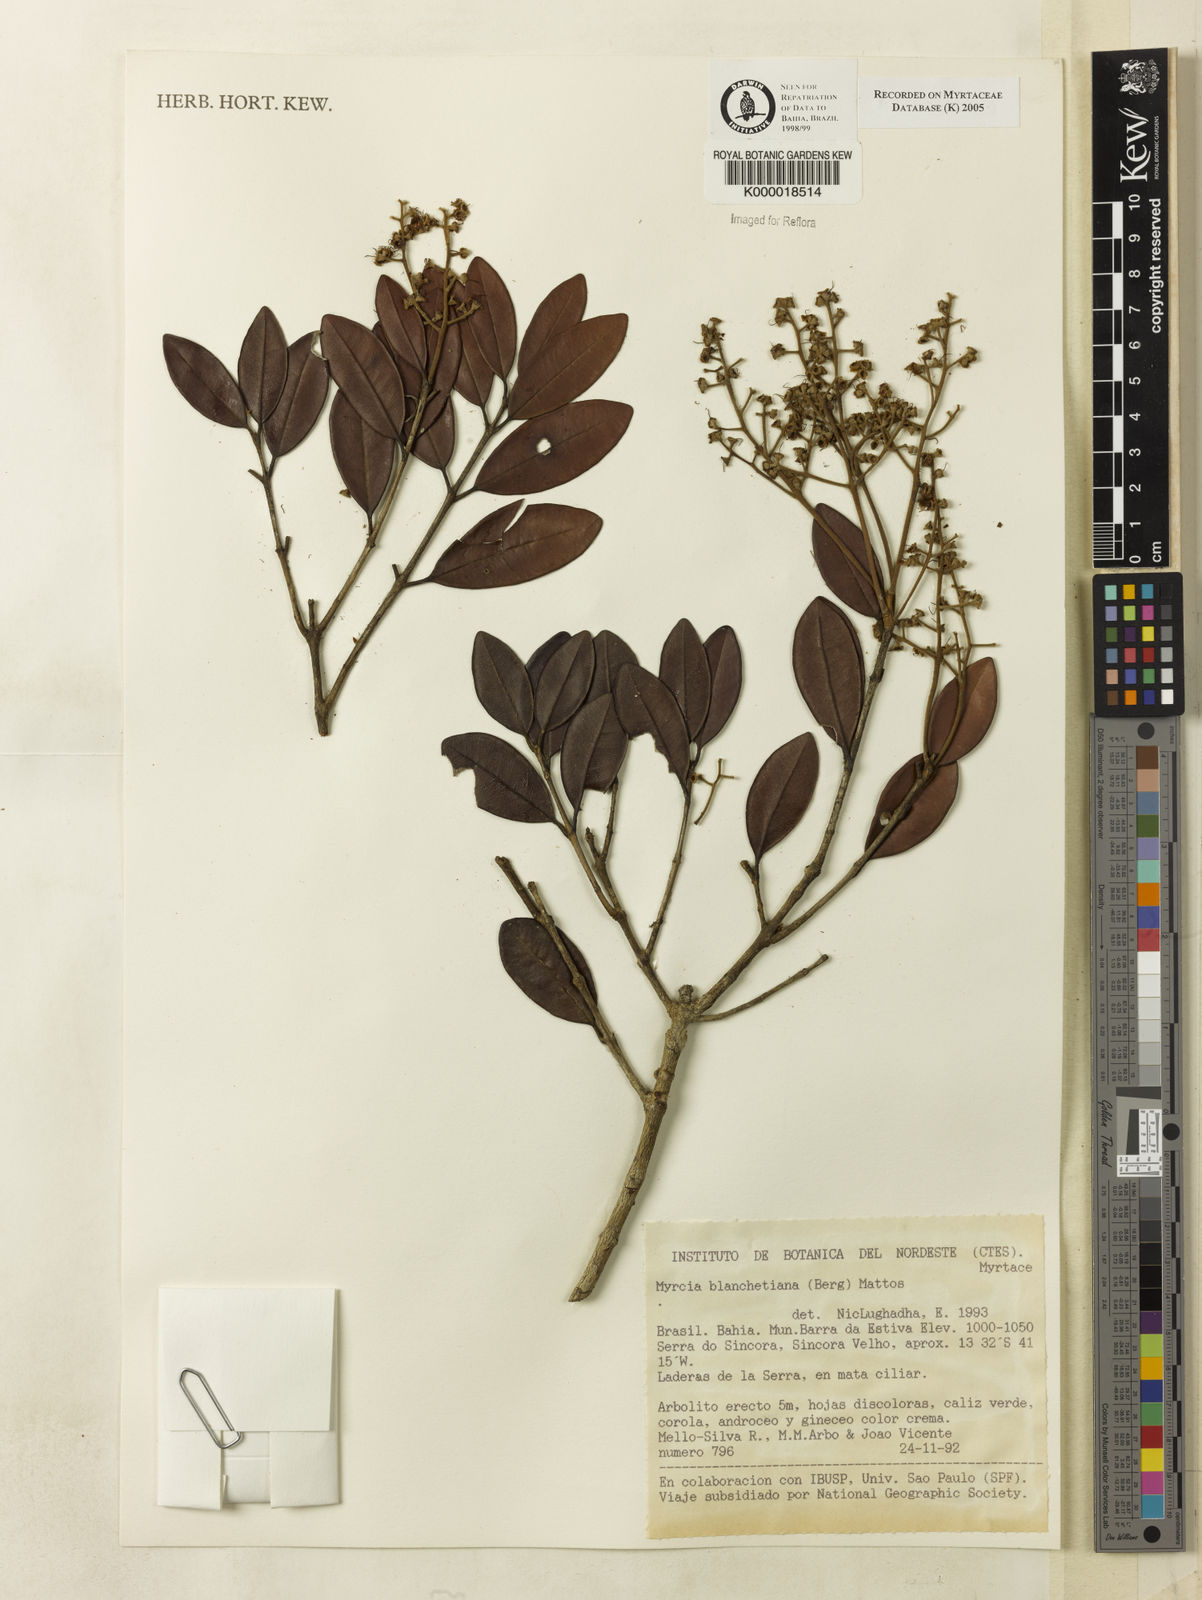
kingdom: Plantae
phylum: Tracheophyta
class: Magnoliopsida
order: Myrtales
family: Myrtaceae
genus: Myrcia
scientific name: Myrcia blanchetiana
